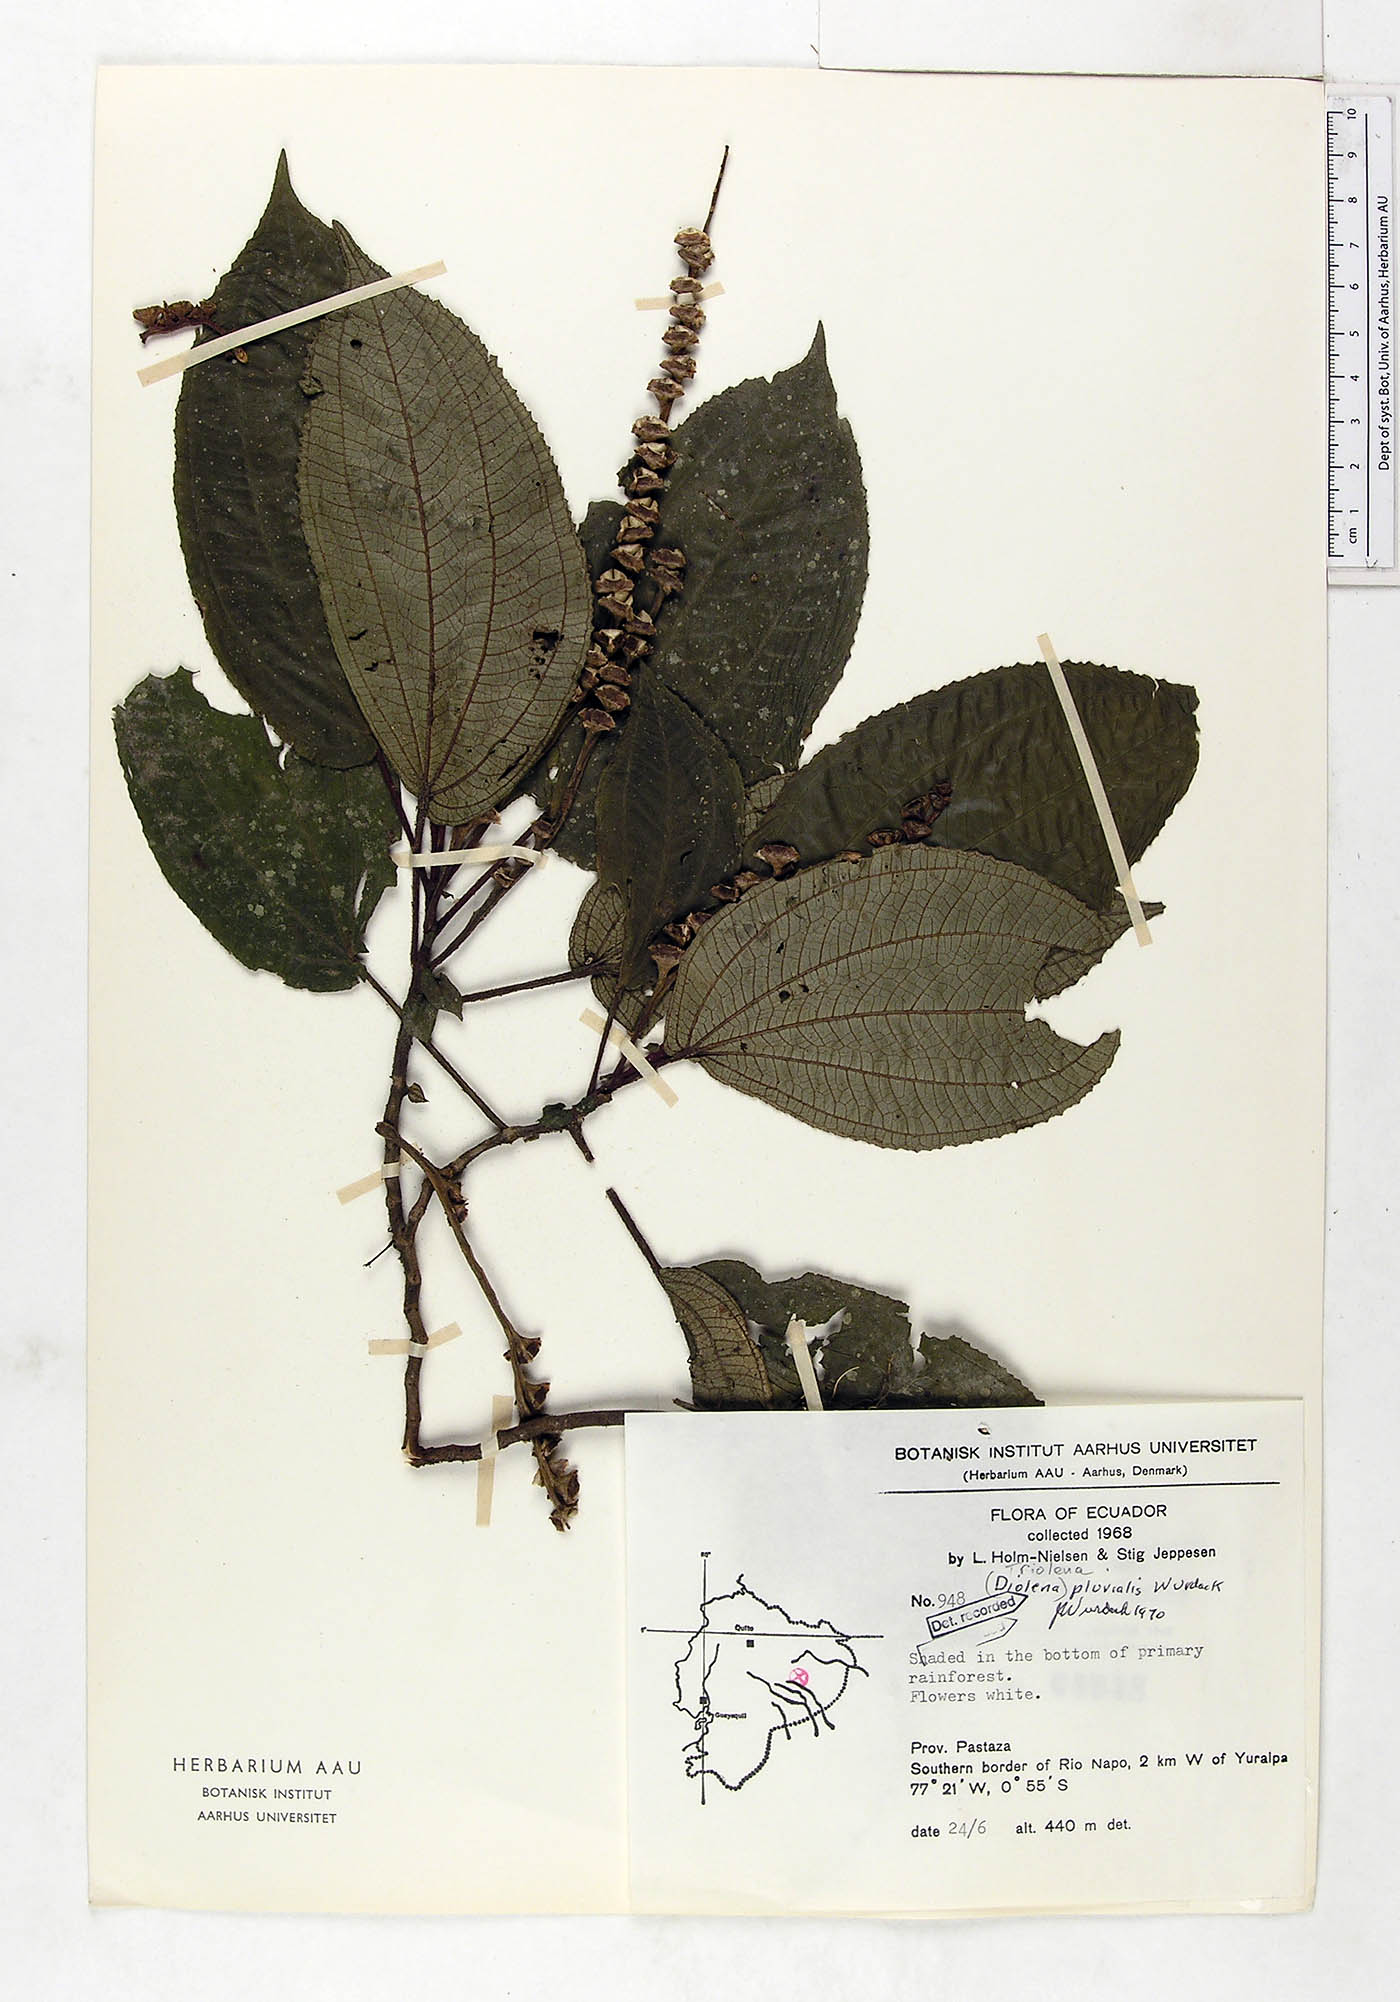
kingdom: Plantae
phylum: Tracheophyta
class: Magnoliopsida
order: Myrtales
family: Melastomataceae
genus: Triolena
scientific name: Triolena pluvialis
